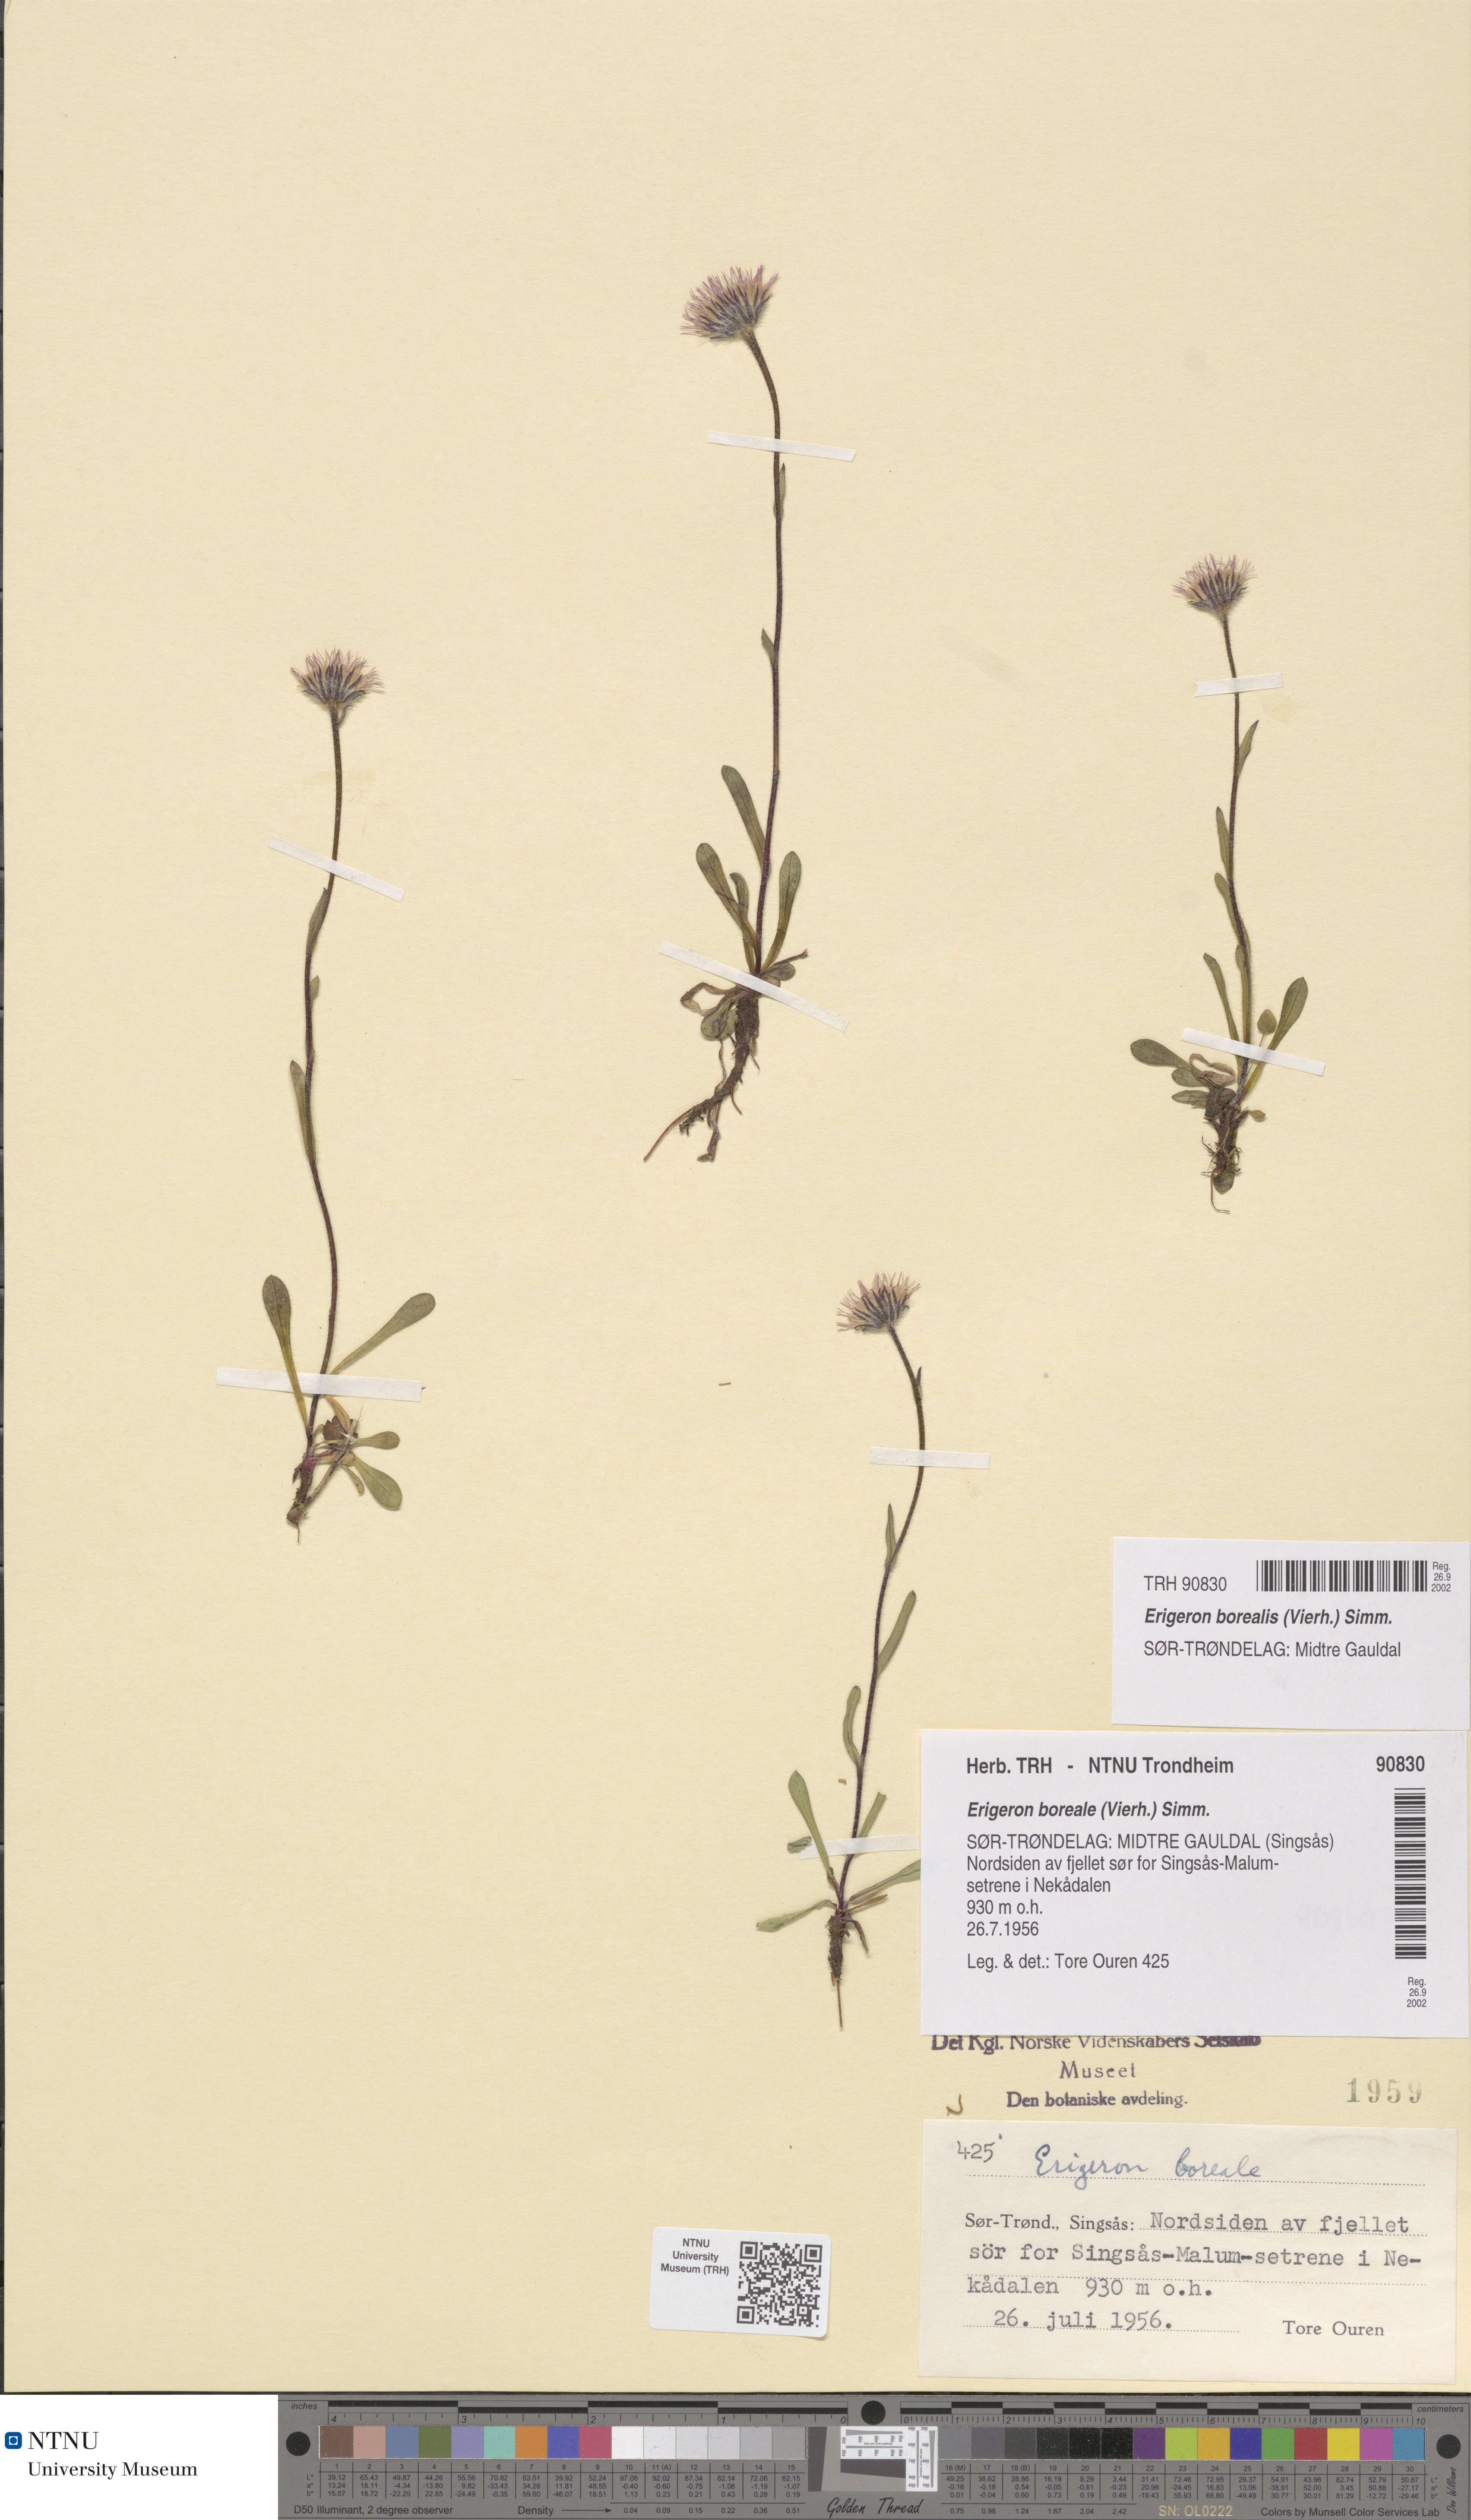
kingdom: Plantae
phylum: Tracheophyta
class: Magnoliopsida
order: Asterales
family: Asteraceae
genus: Erigeron
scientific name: Erigeron borealis
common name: Alpine fleabane
